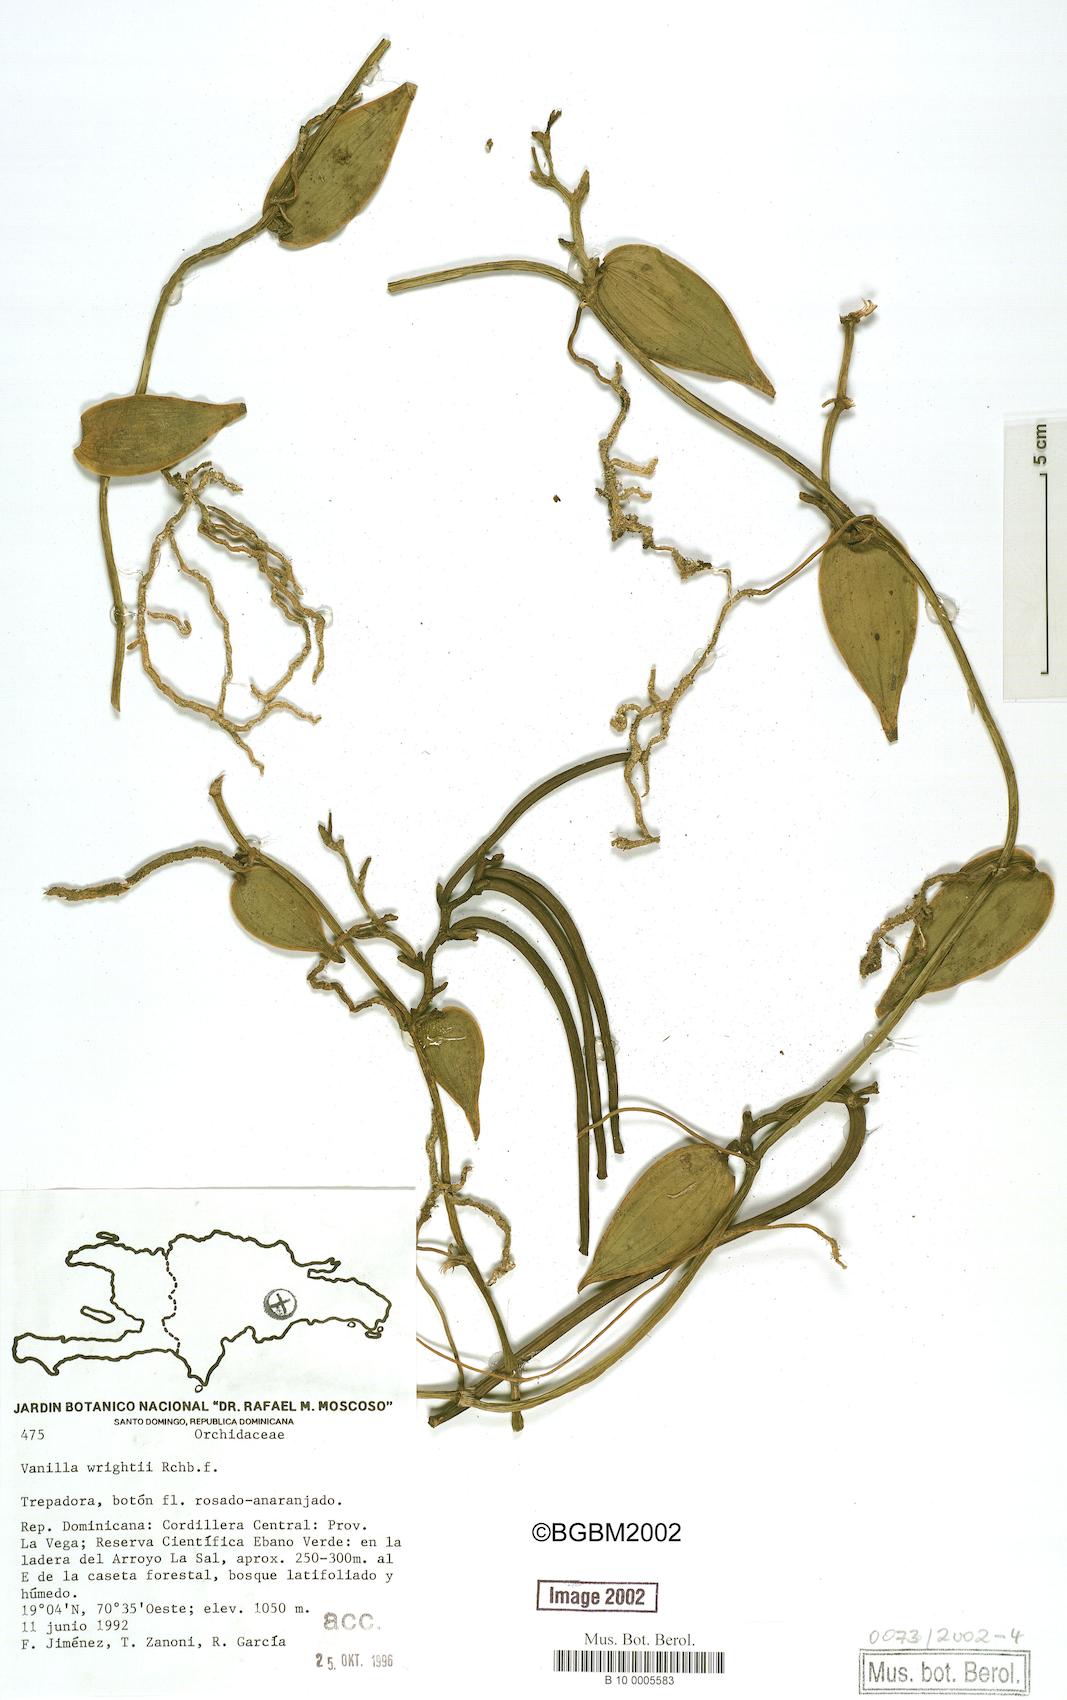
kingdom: Plantae
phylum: Tracheophyta
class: Liliopsida
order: Asparagales
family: Orchidaceae
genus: Vanilla
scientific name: Vanilla bicolor
